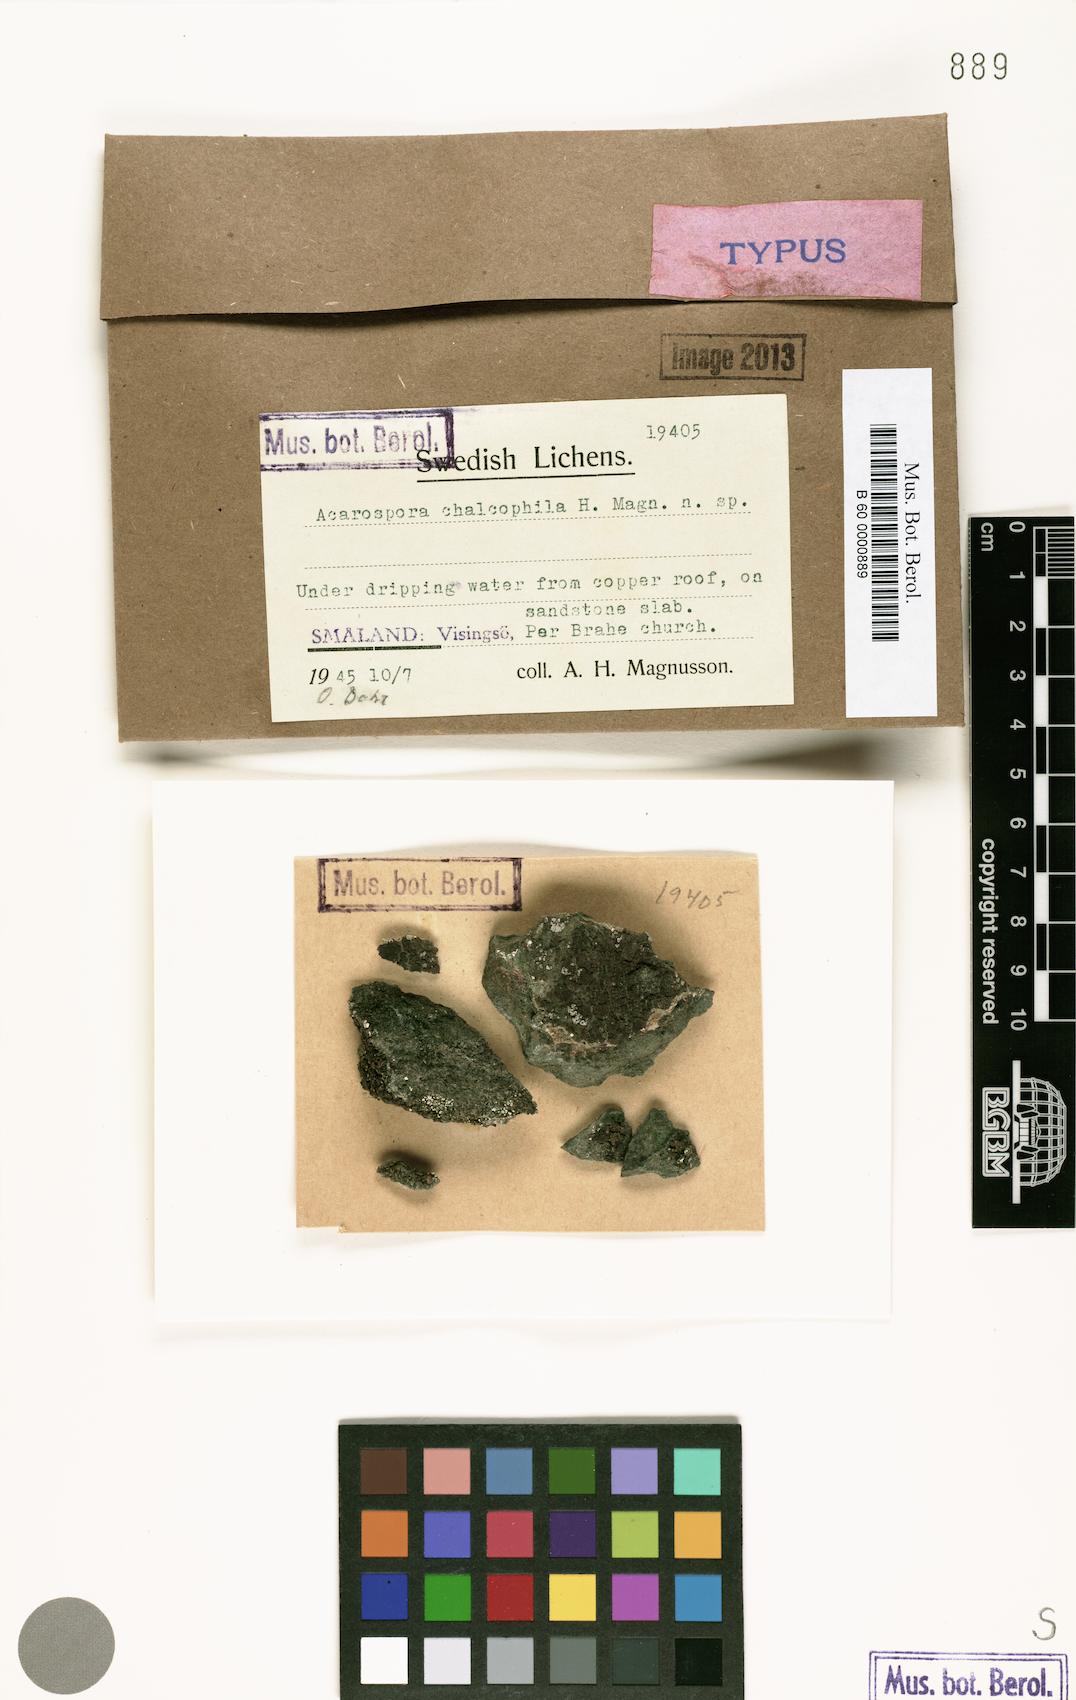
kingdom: Fungi
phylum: Ascomycota
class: Lecanoromycetes
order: Acarosporales
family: Acarosporaceae
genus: Polysporinopsis
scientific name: Polysporinopsis rugulosa
